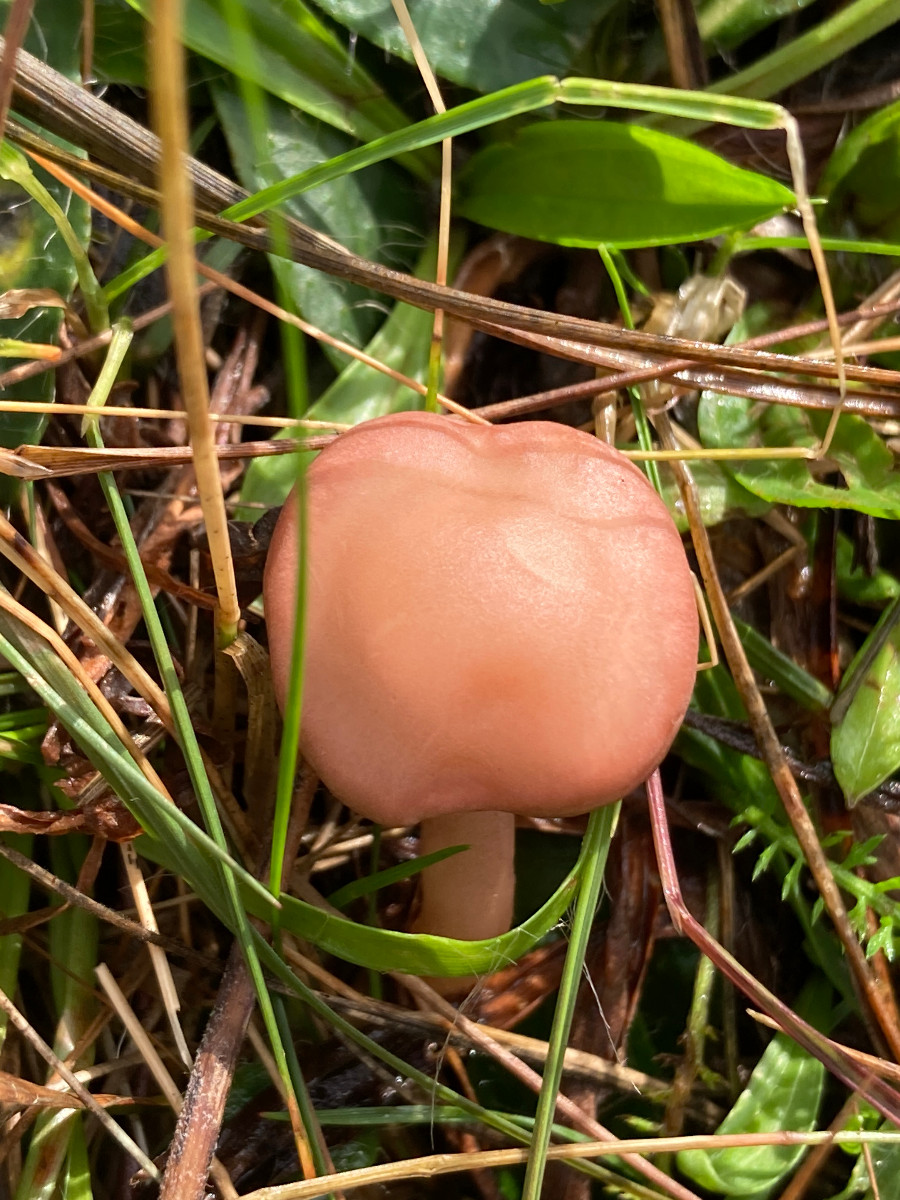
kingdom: Fungi
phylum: Basidiomycota
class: Agaricomycetes
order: Agaricales
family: Lyophyllaceae
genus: Calocybe
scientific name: Calocybe carnea
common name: rosa fagerhat
